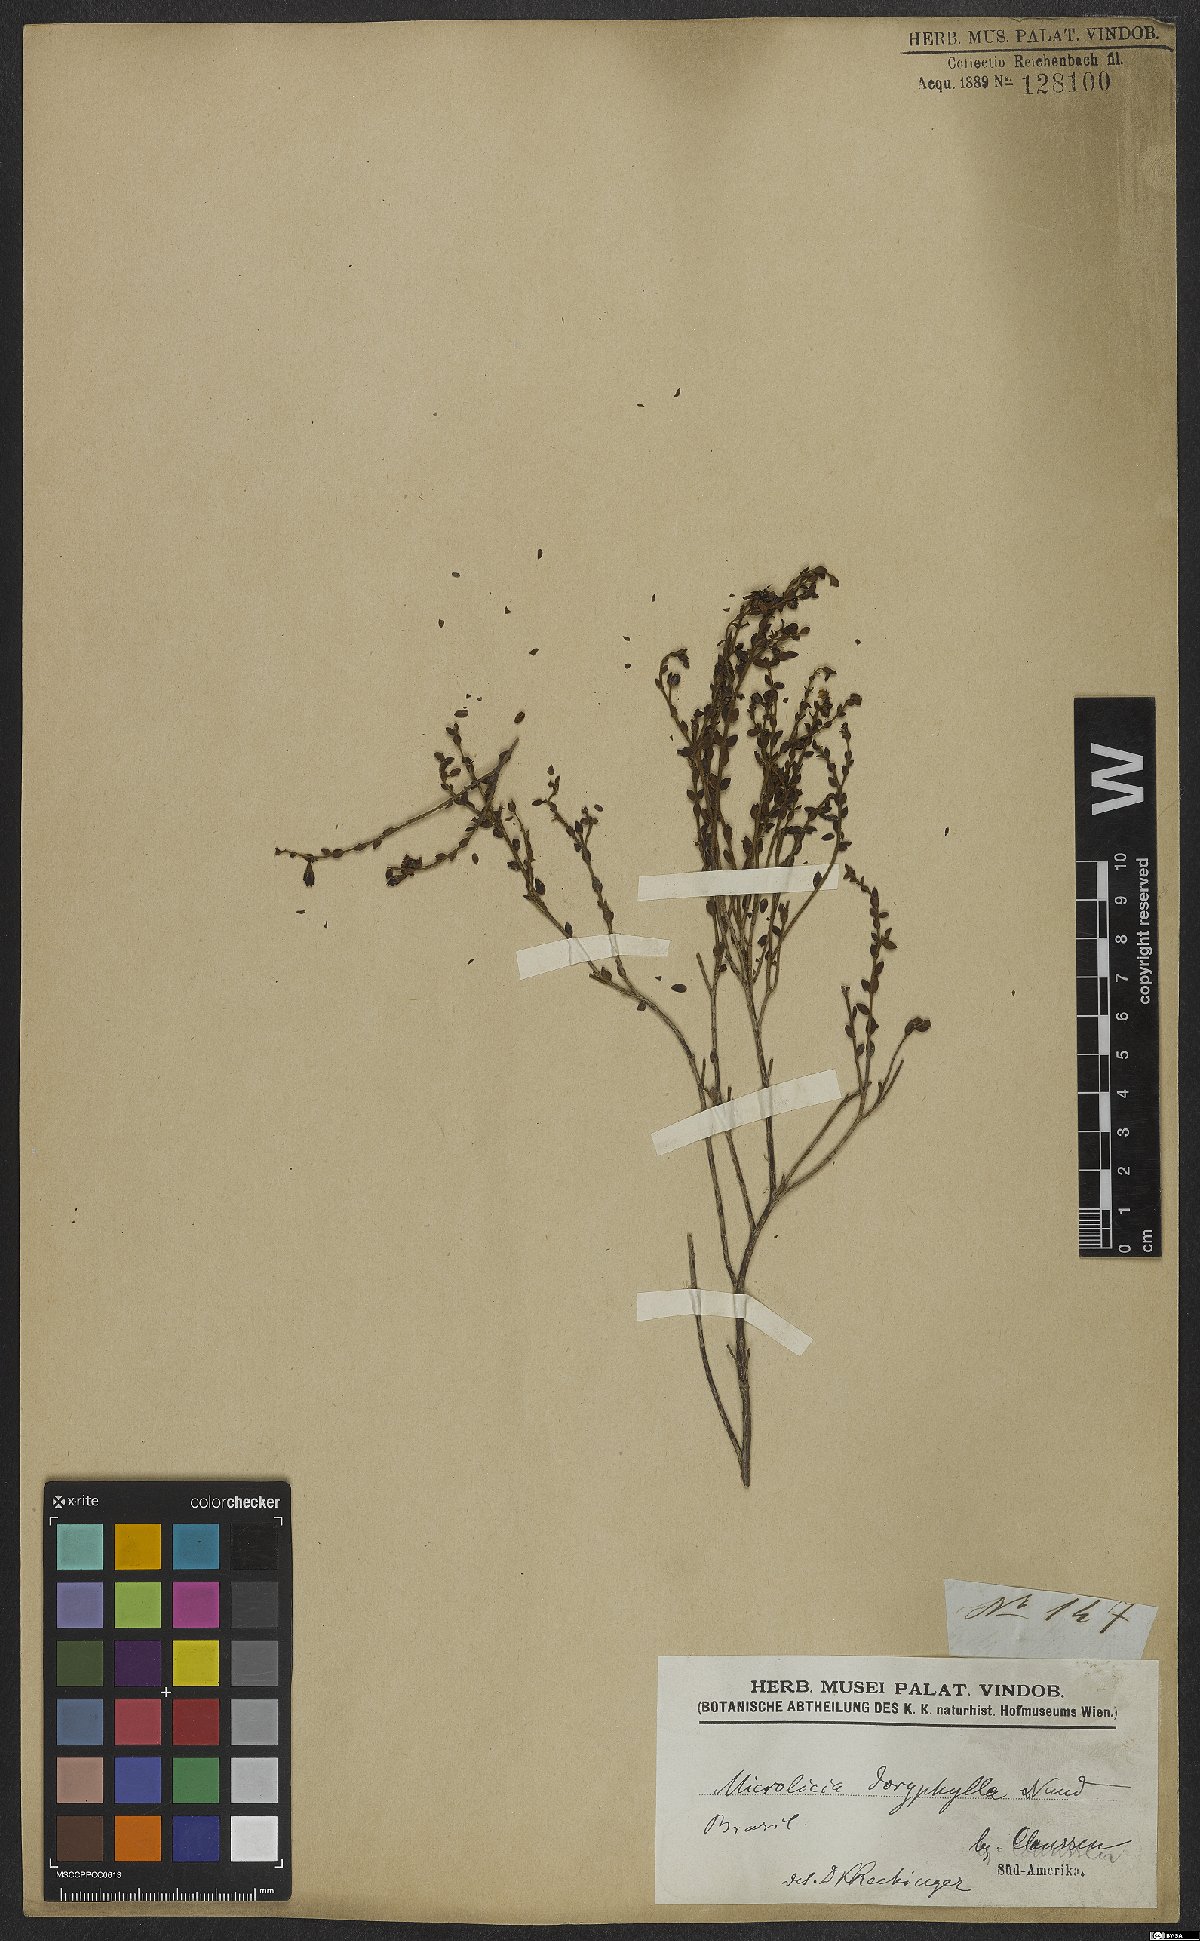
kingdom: Plantae
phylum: Tracheophyta
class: Magnoliopsida
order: Myrtales
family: Melastomataceae
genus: Microlicia
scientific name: Microlicia doryphylla
